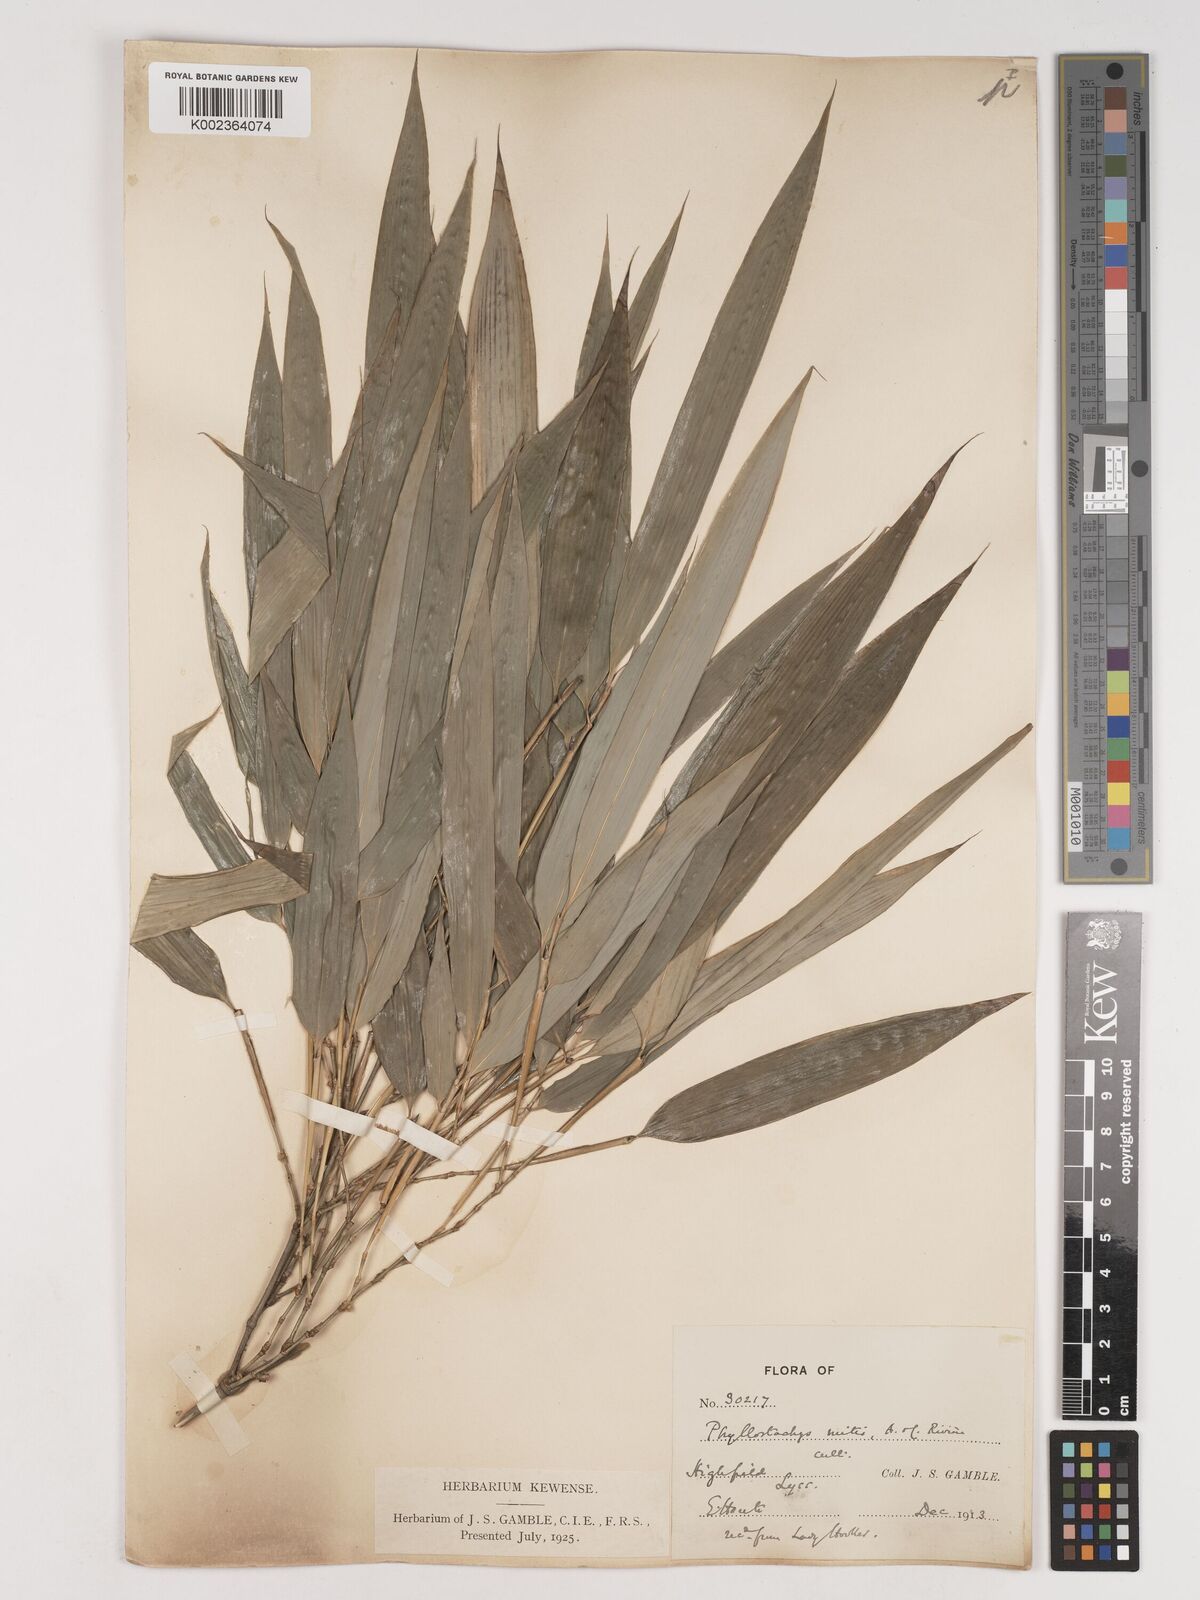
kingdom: Plantae
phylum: Tracheophyta
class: Liliopsida
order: Poales
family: Poaceae
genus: Phyllostachys
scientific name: Phyllostachys sulphurea
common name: Sulphur bamboo
